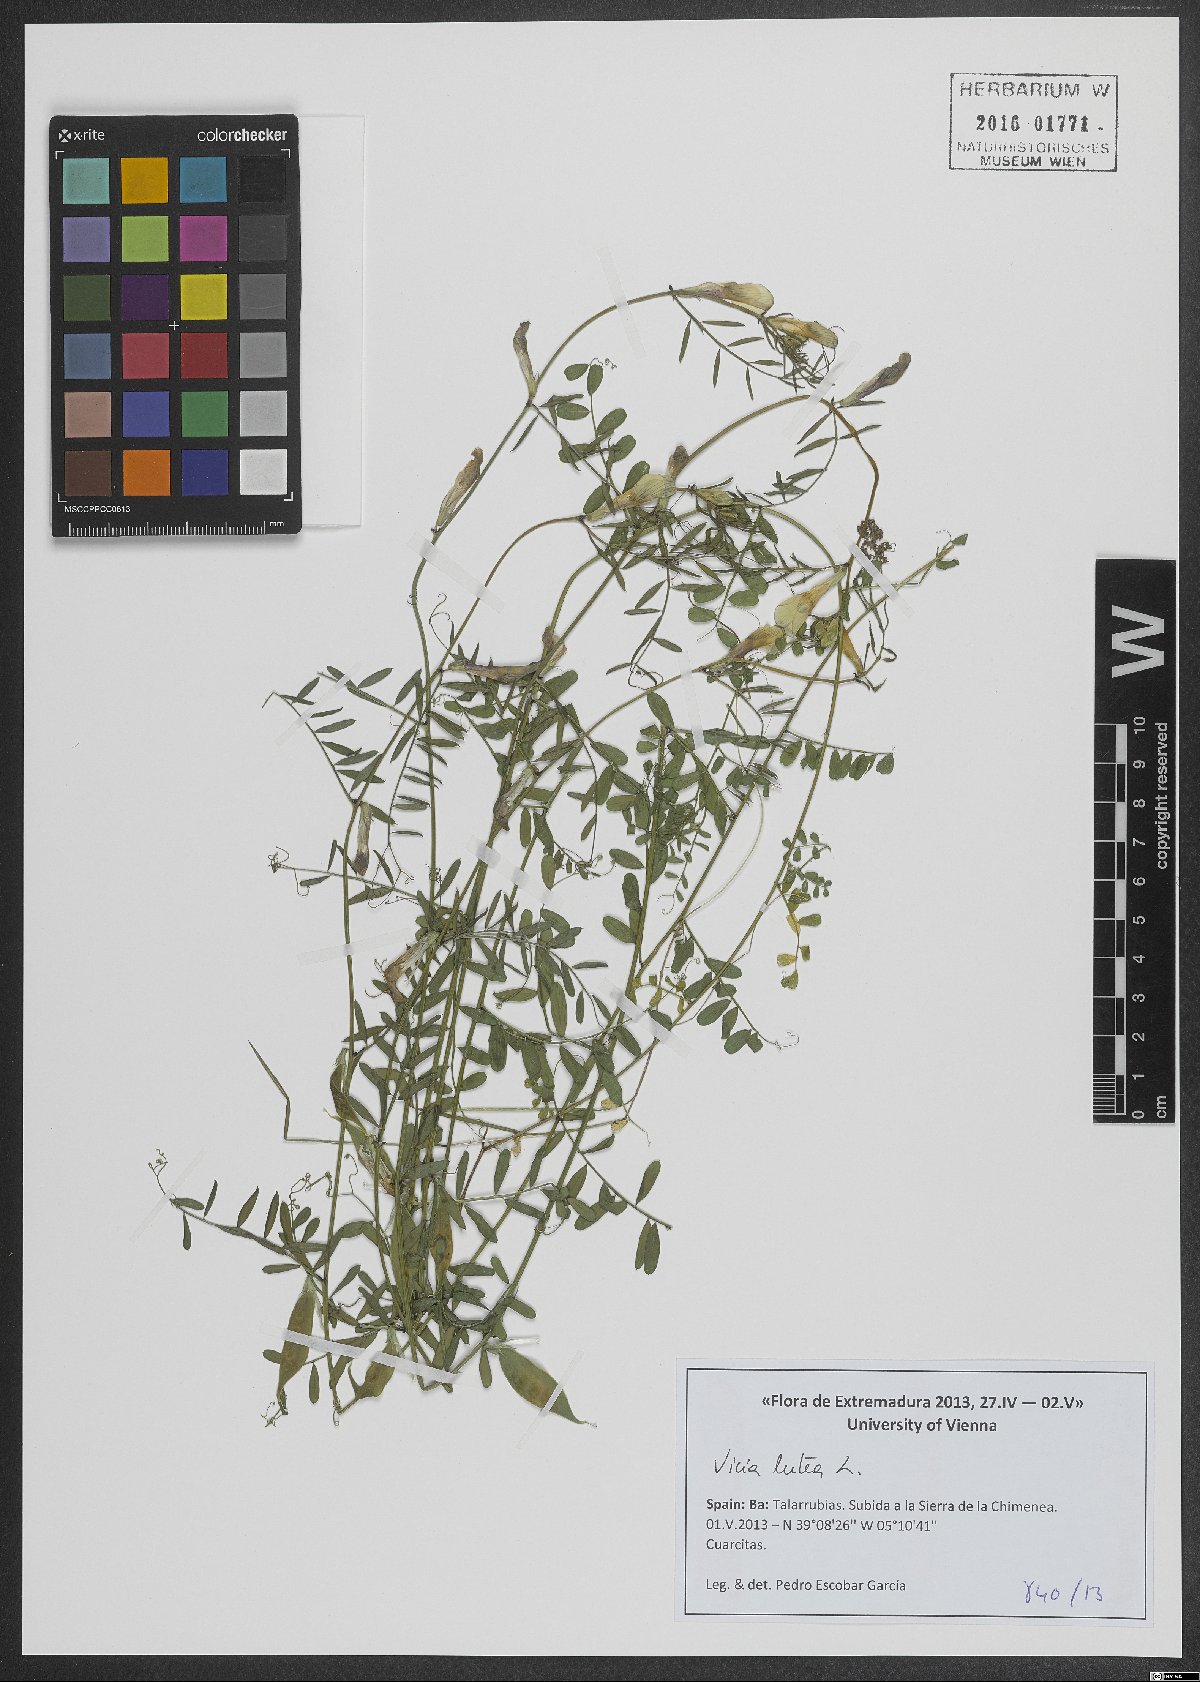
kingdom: Plantae
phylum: Tracheophyta
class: Magnoliopsida
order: Fabales
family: Fabaceae
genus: Vicia
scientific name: Vicia lutea
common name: Smooth yellow vetch
